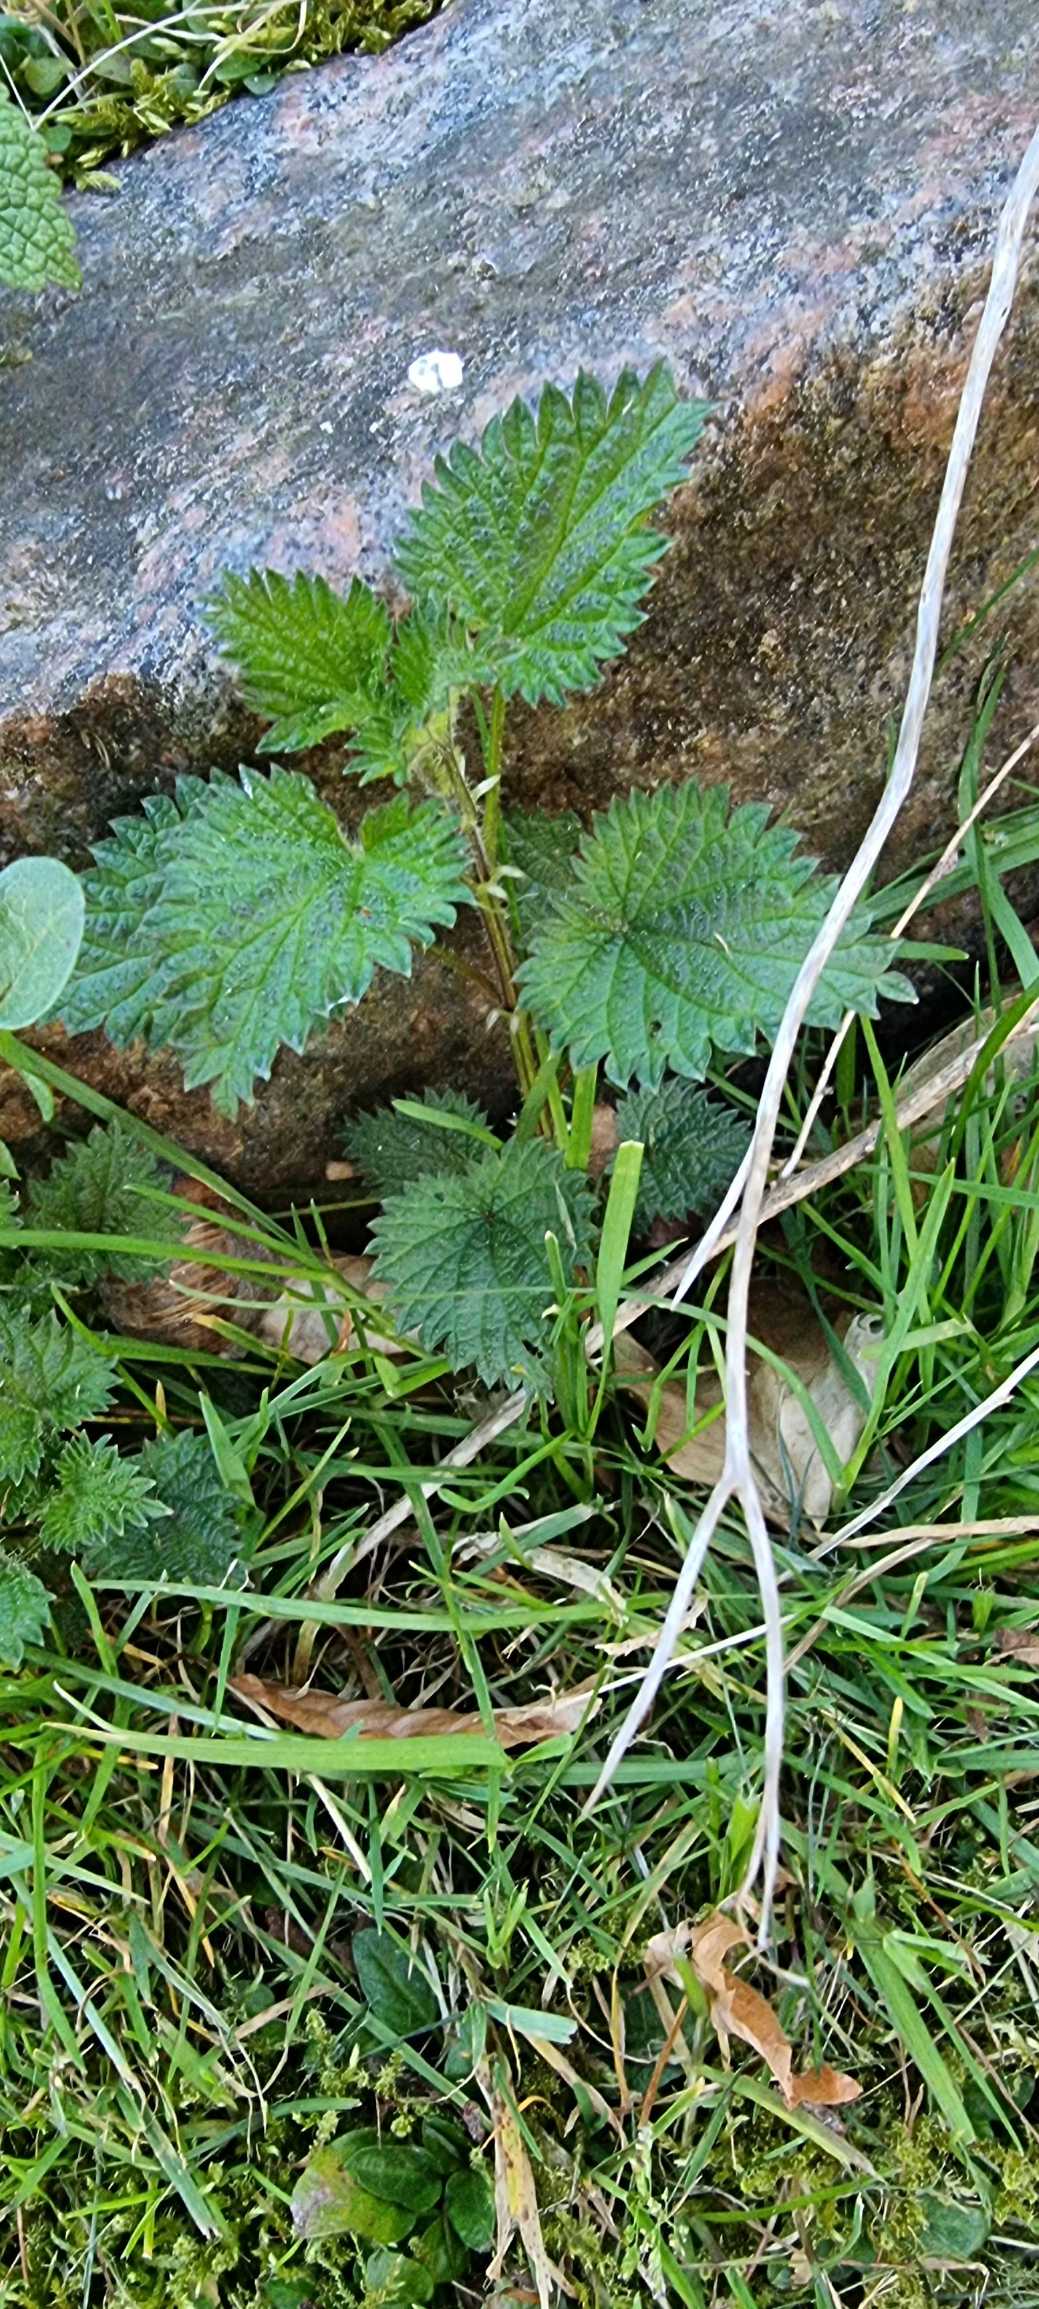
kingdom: Plantae
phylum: Tracheophyta
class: Magnoliopsida
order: Rosales
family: Urticaceae
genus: Urtica
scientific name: Urtica dioica
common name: Stor nælde
